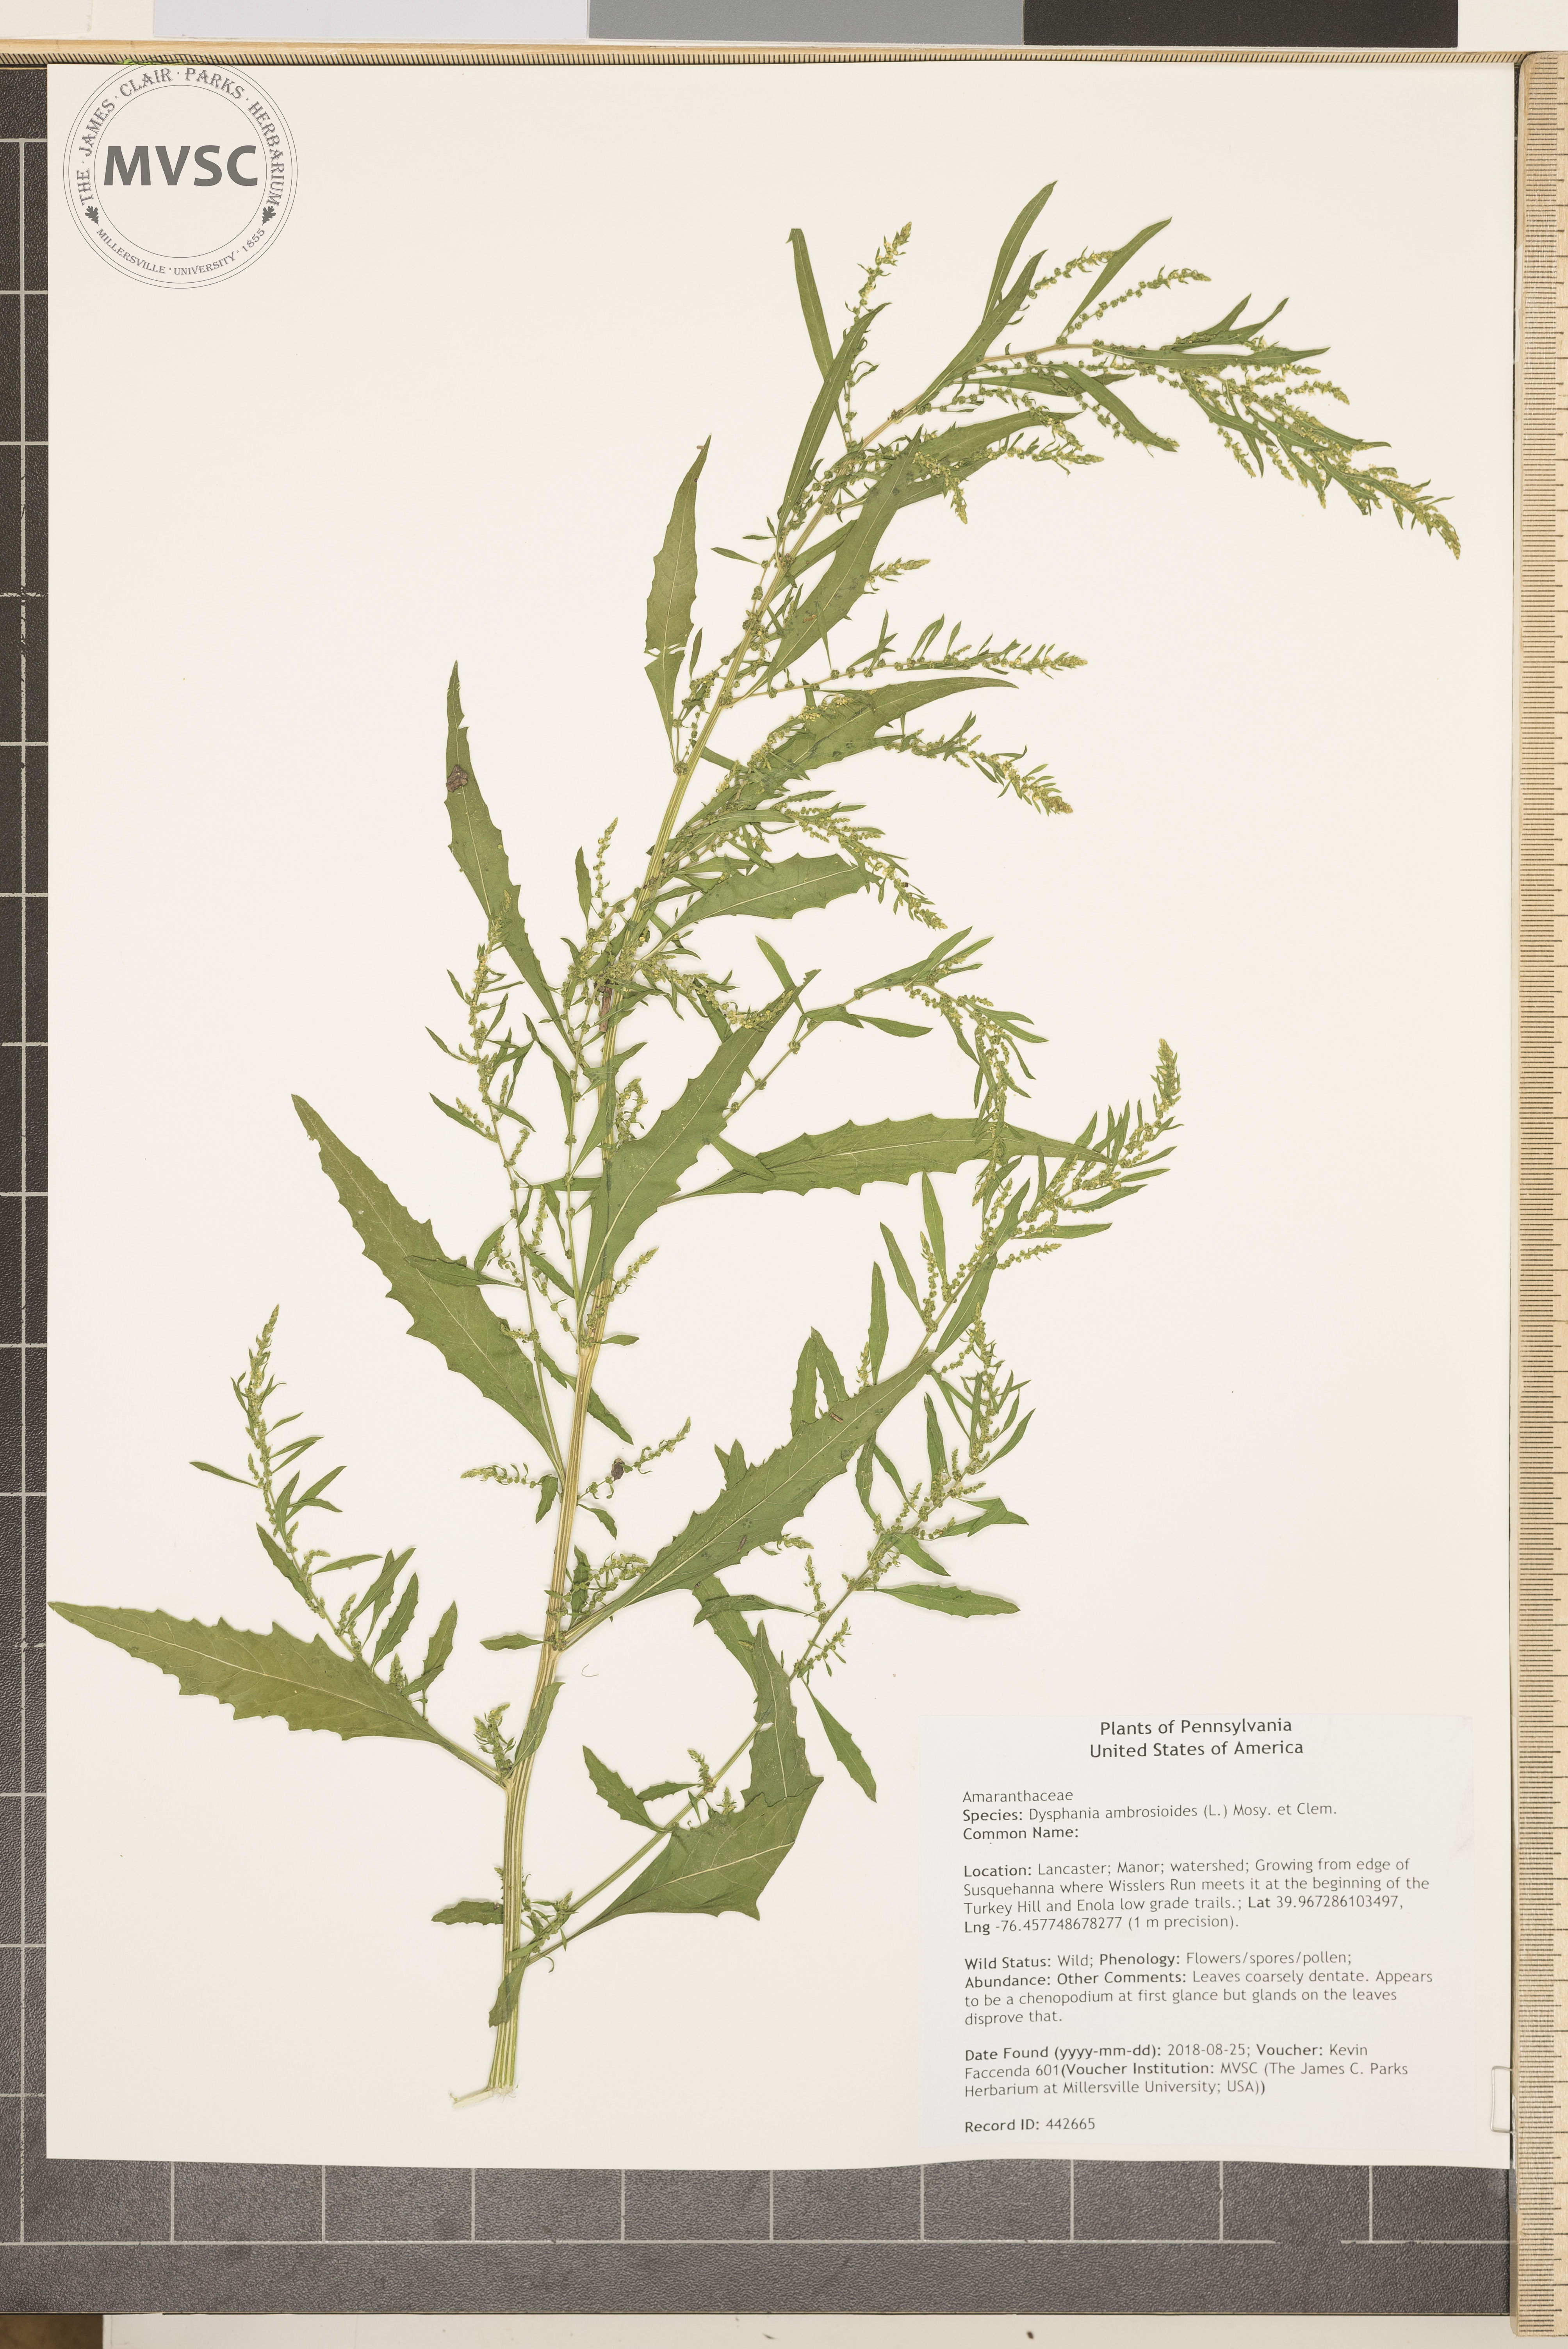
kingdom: Plantae
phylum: Tracheophyta
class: Magnoliopsida
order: Caryophyllales
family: Amaranthaceae
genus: Dysphania
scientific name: Dysphania ambrosioides
